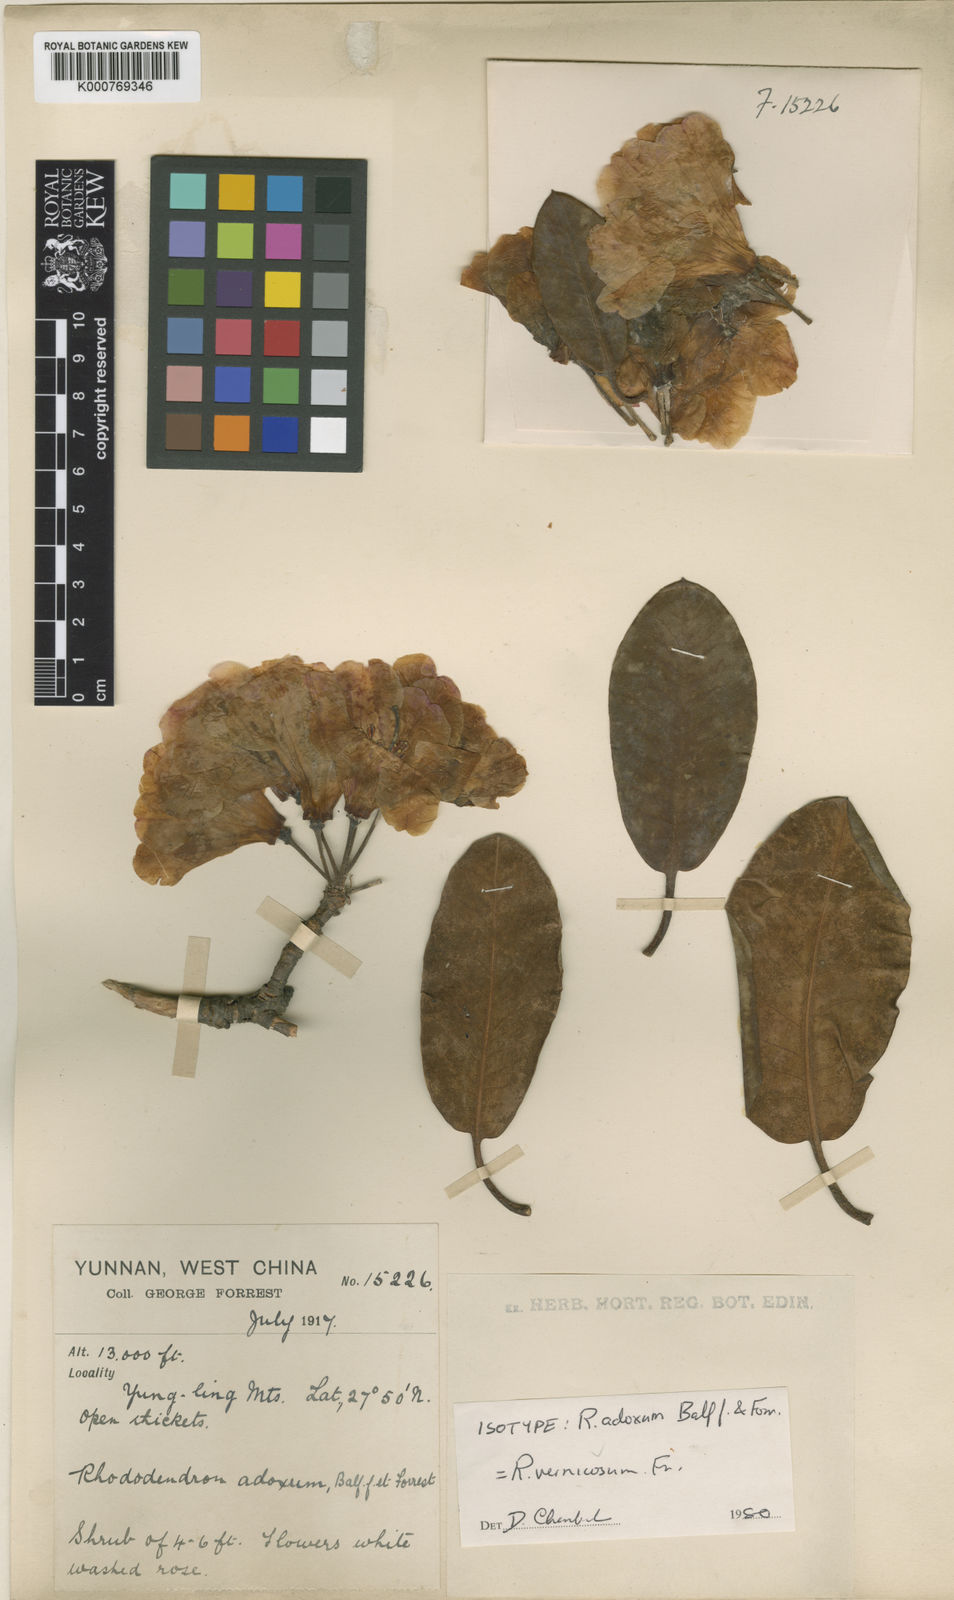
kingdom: Plantae
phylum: Tracheophyta
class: Magnoliopsida
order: Ericales
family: Ericaceae
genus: Rhododendron
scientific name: Rhododendron vernicosum
